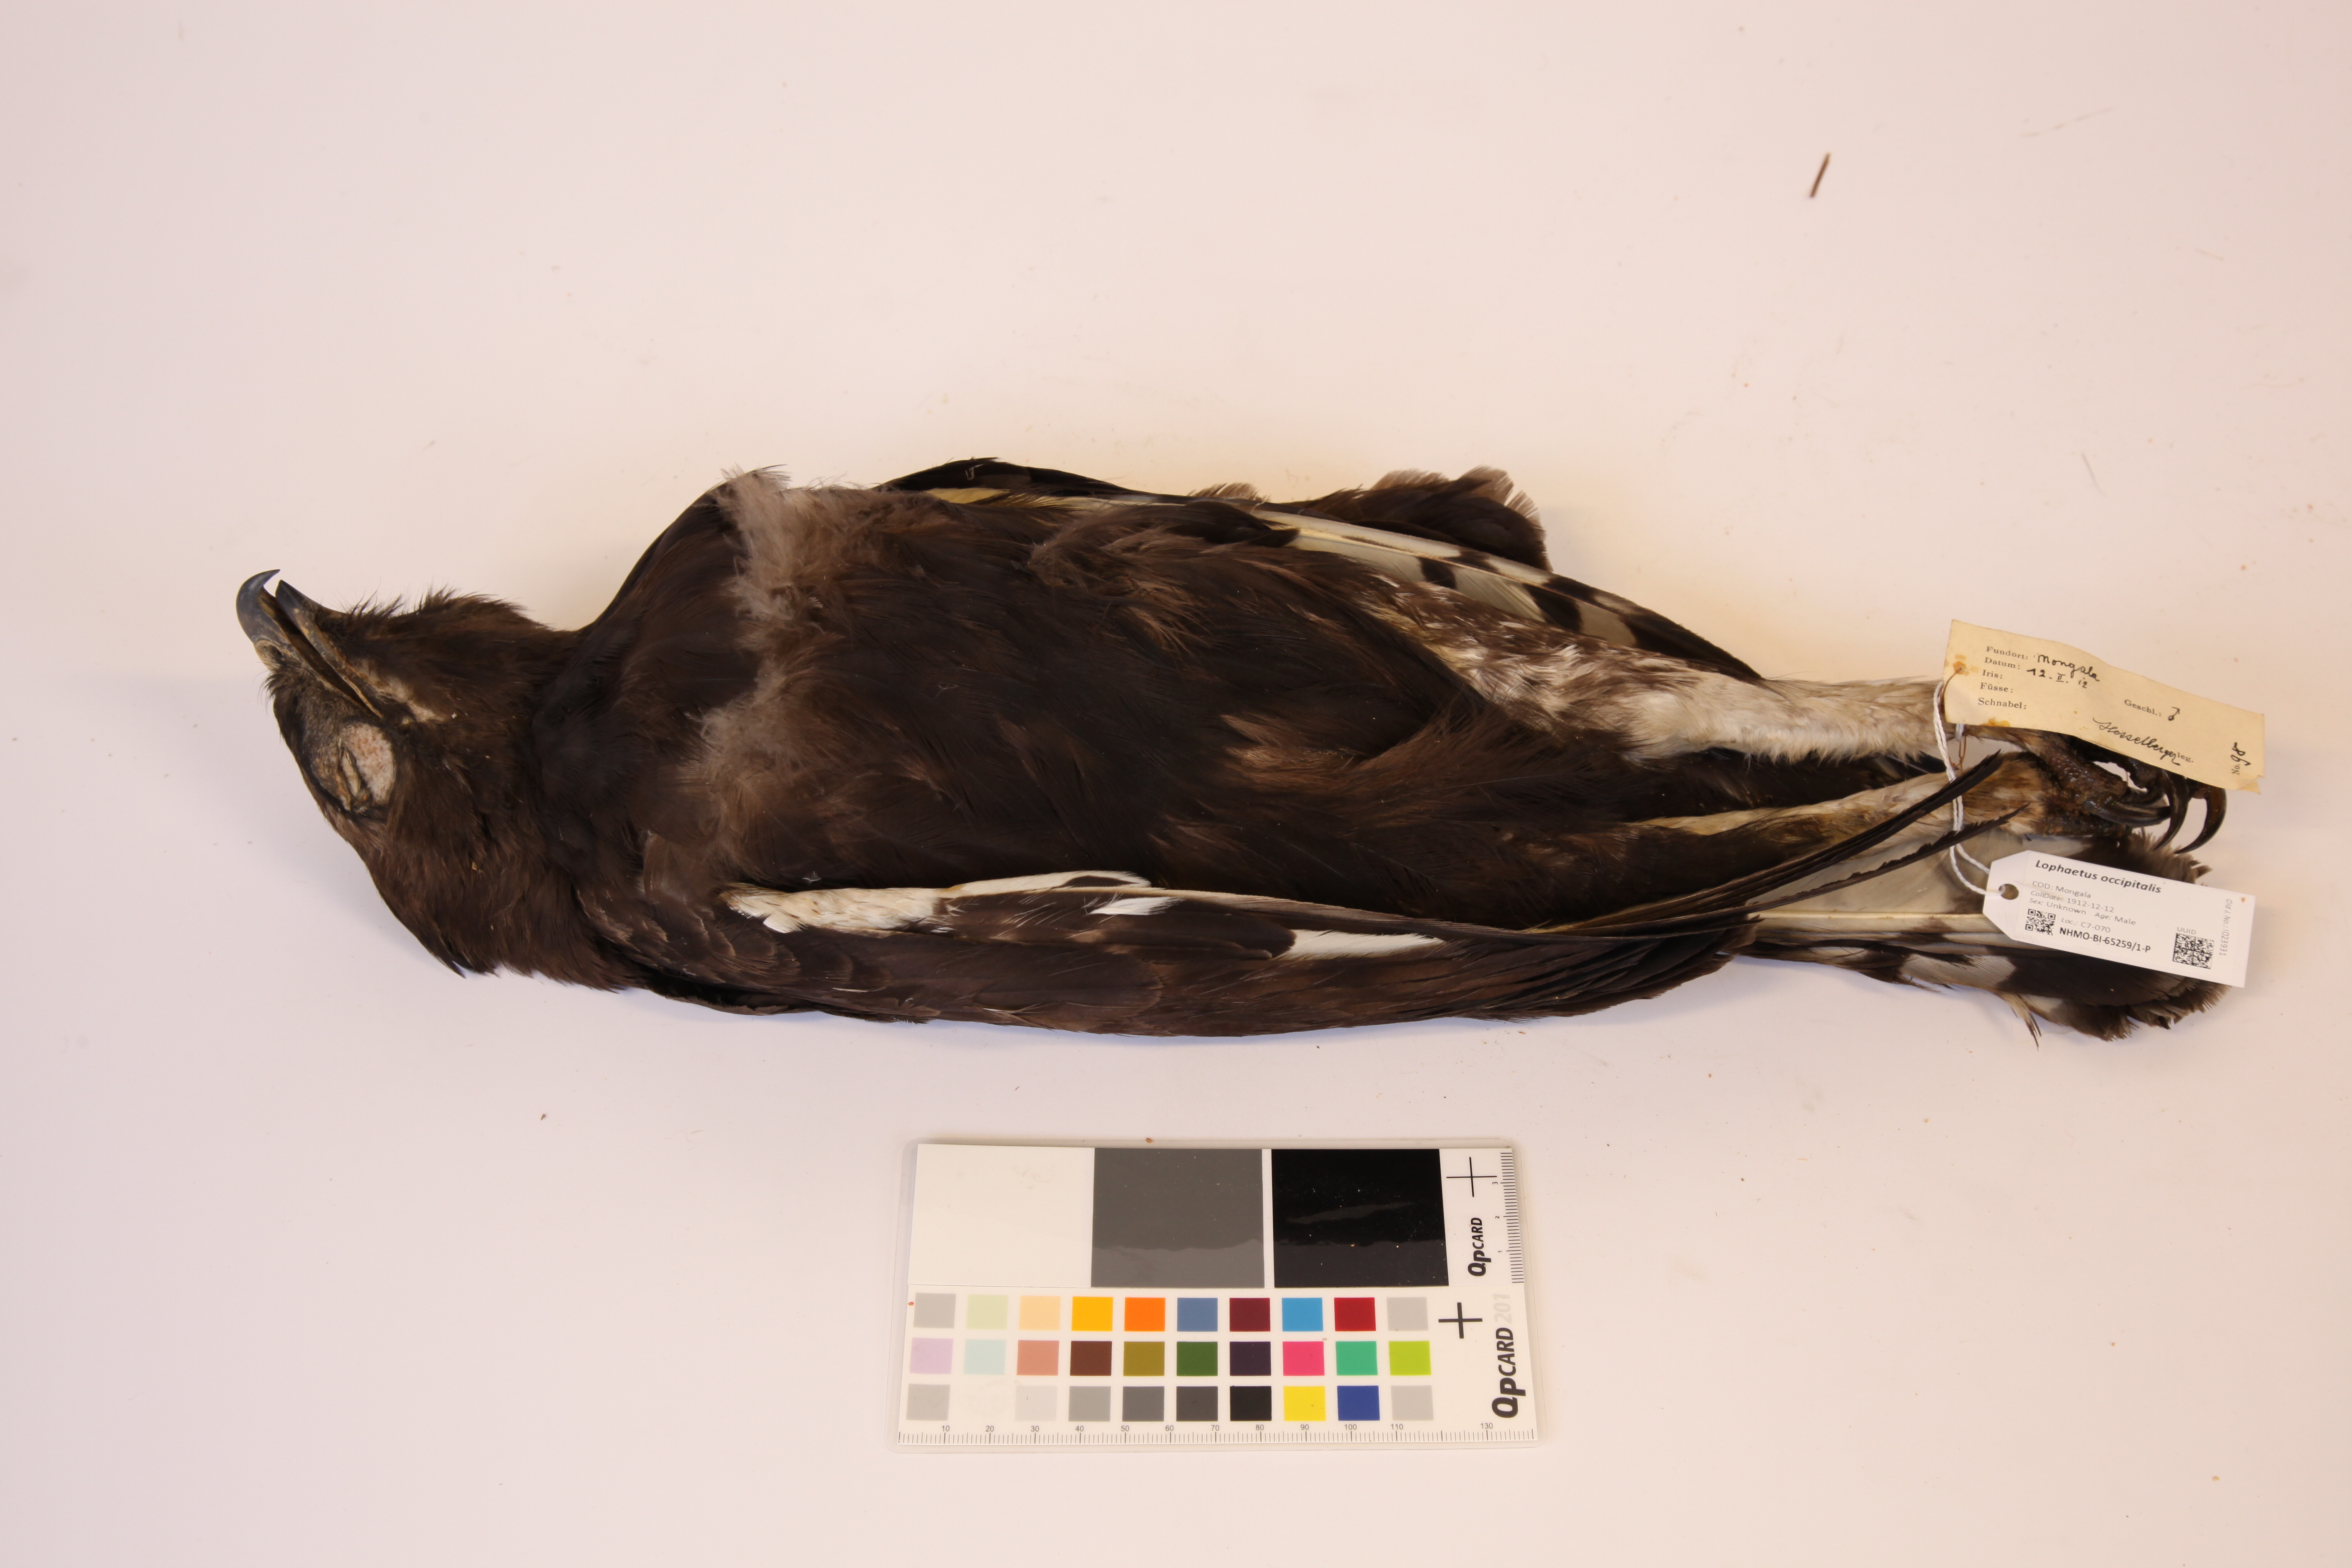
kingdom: Animalia
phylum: Chordata
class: Aves
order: Accipitriformes
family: Accipitridae
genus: Lophaetus
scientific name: Lophaetus occipitalis
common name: Long-crested eagle
